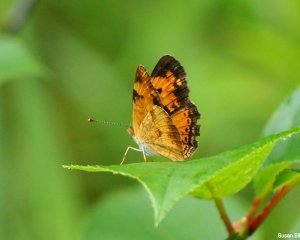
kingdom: Animalia
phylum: Arthropoda
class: Insecta
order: Lepidoptera
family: Nymphalidae
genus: Phyciodes
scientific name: Phyciodes
